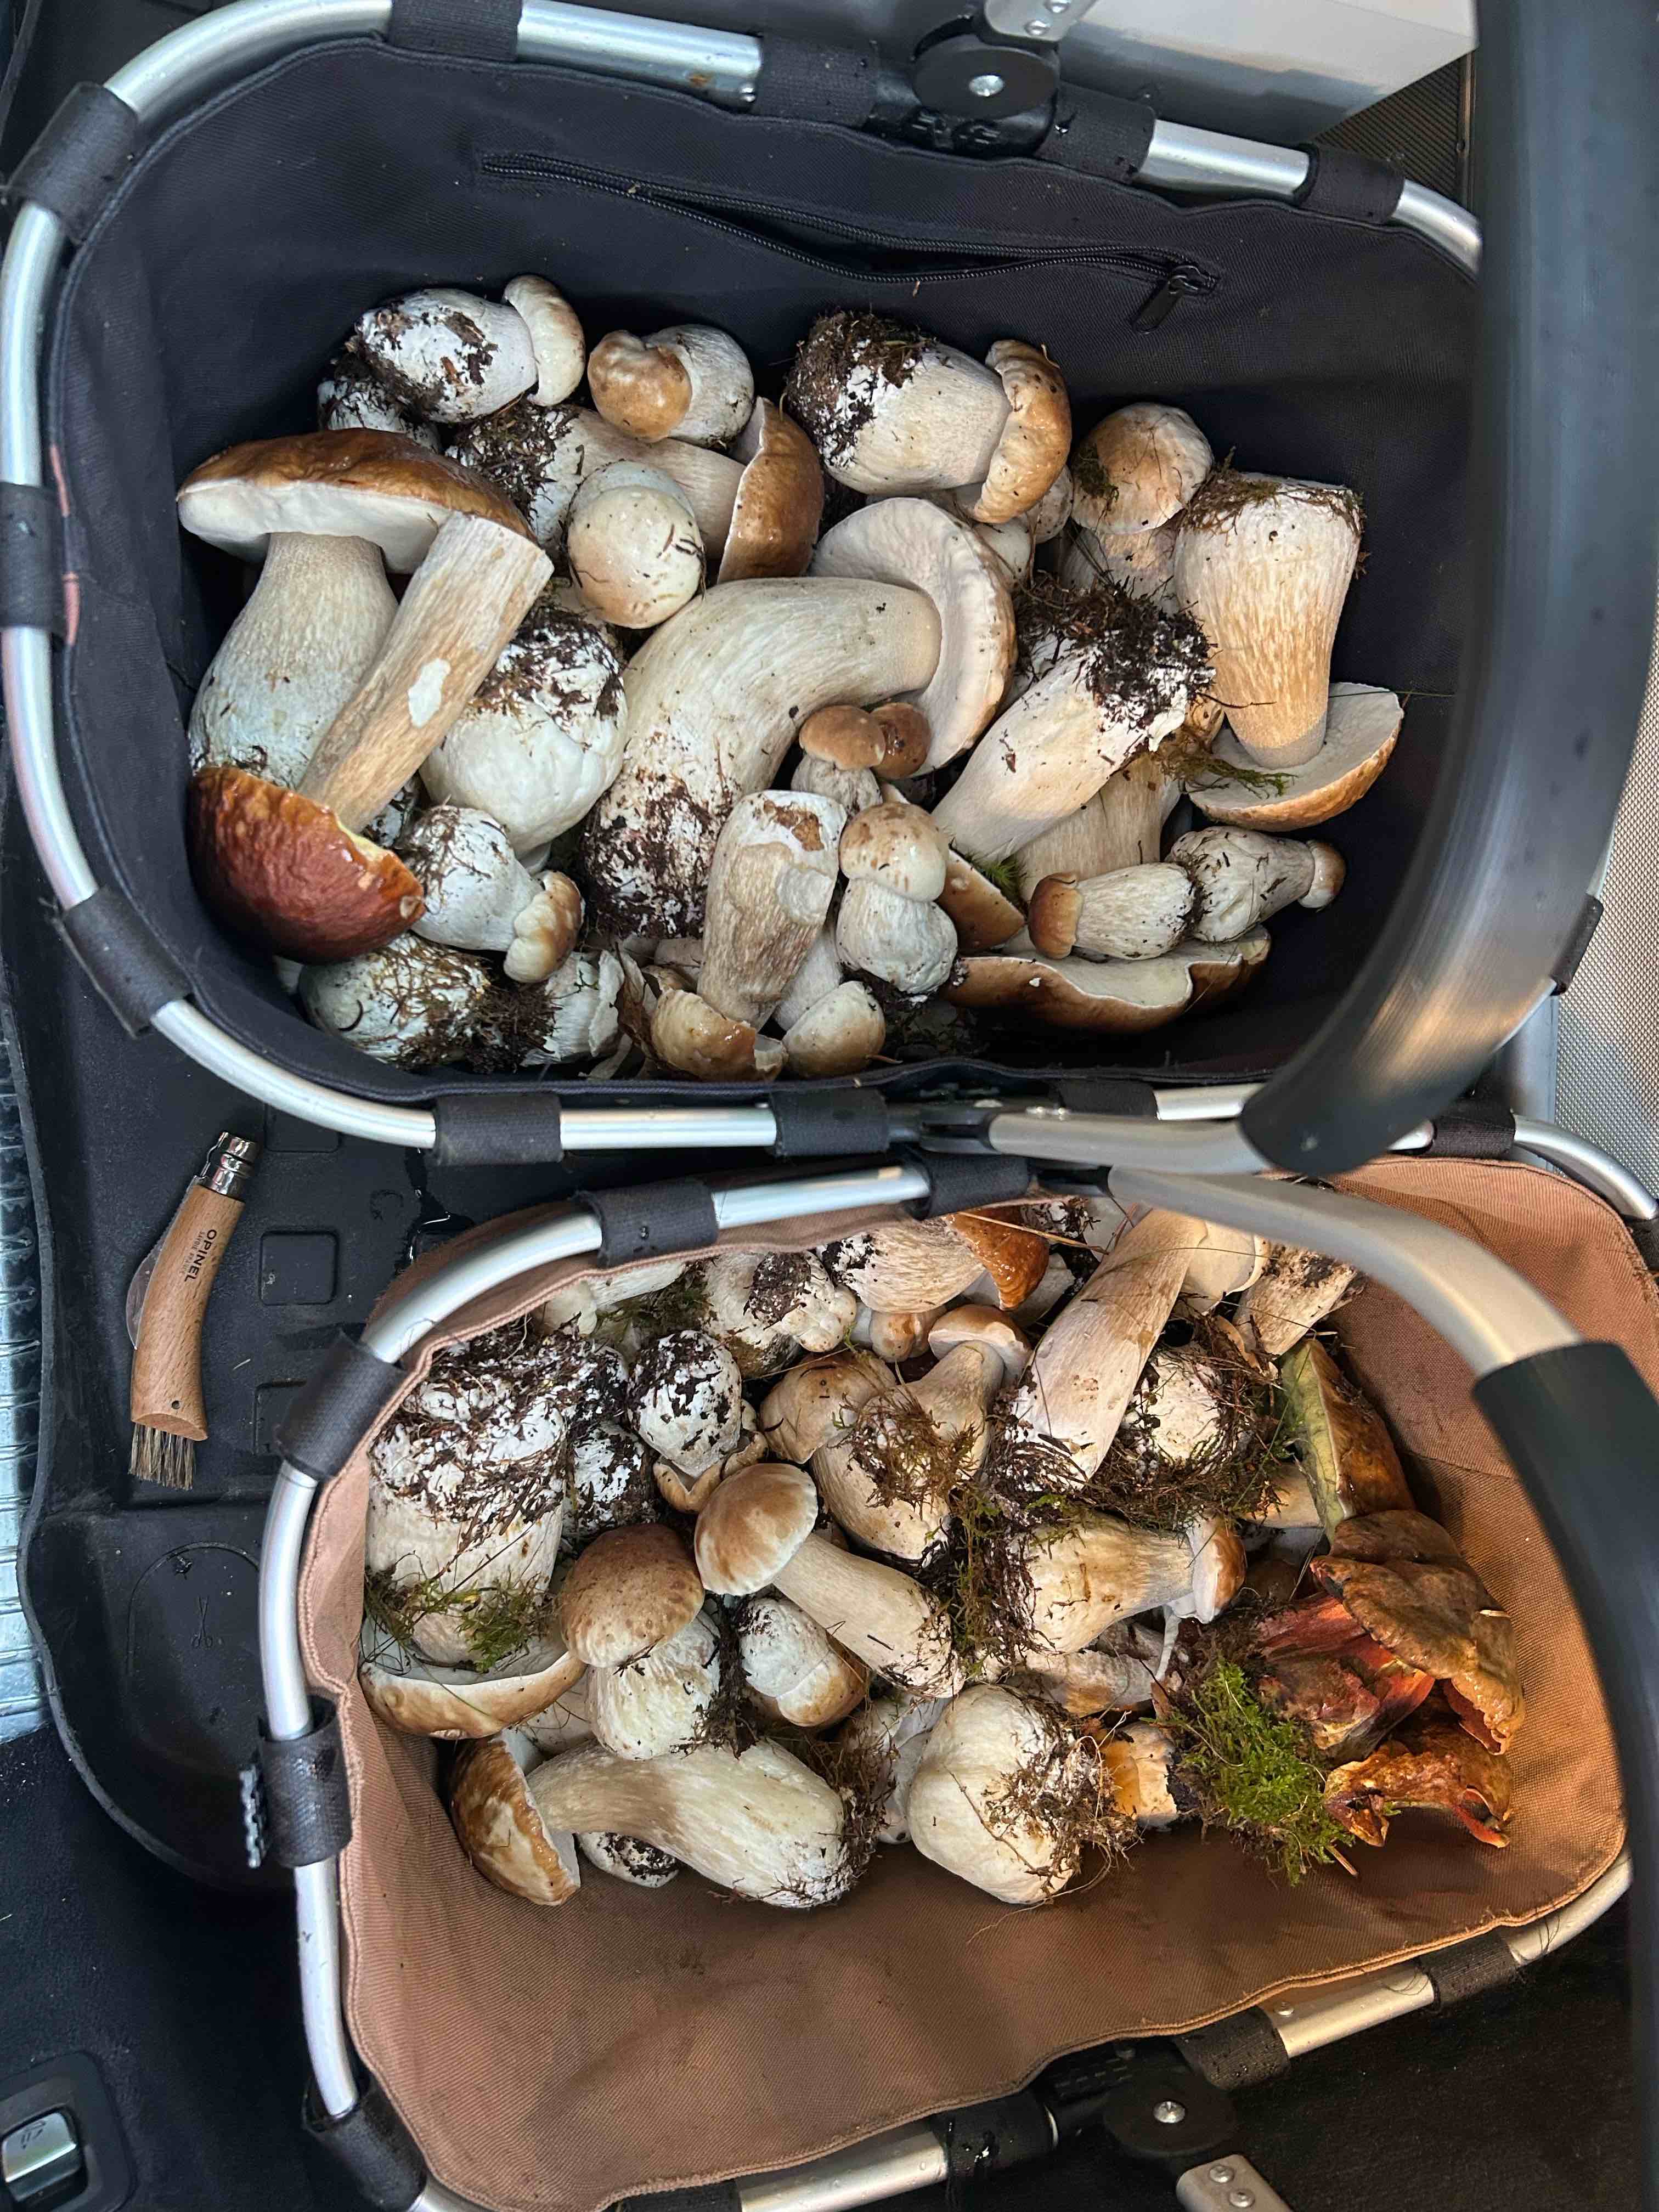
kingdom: Fungi
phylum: Basidiomycota
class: Agaricomycetes
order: Boletales
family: Boletaceae
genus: Boletus
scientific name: Boletus edulis
